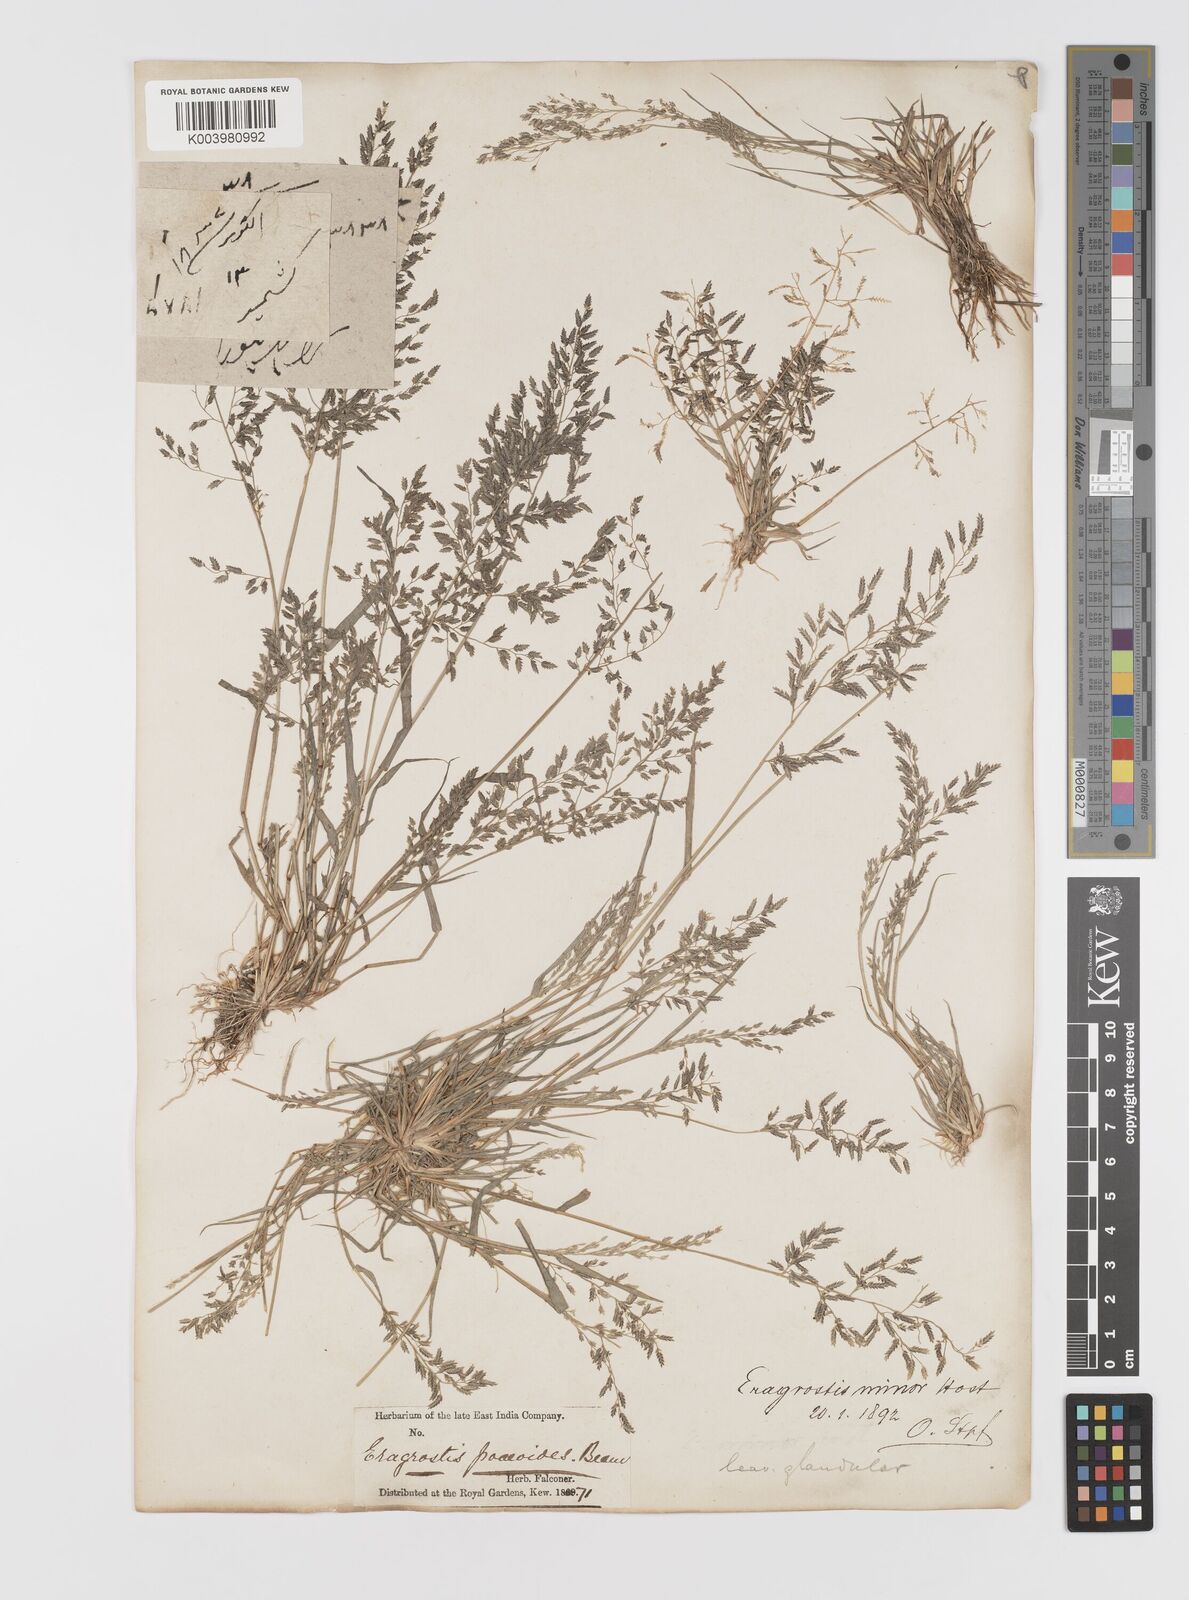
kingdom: Plantae
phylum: Tracheophyta
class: Liliopsida
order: Poales
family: Poaceae
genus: Eragrostis
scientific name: Eragrostis minor
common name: Small love-grass
